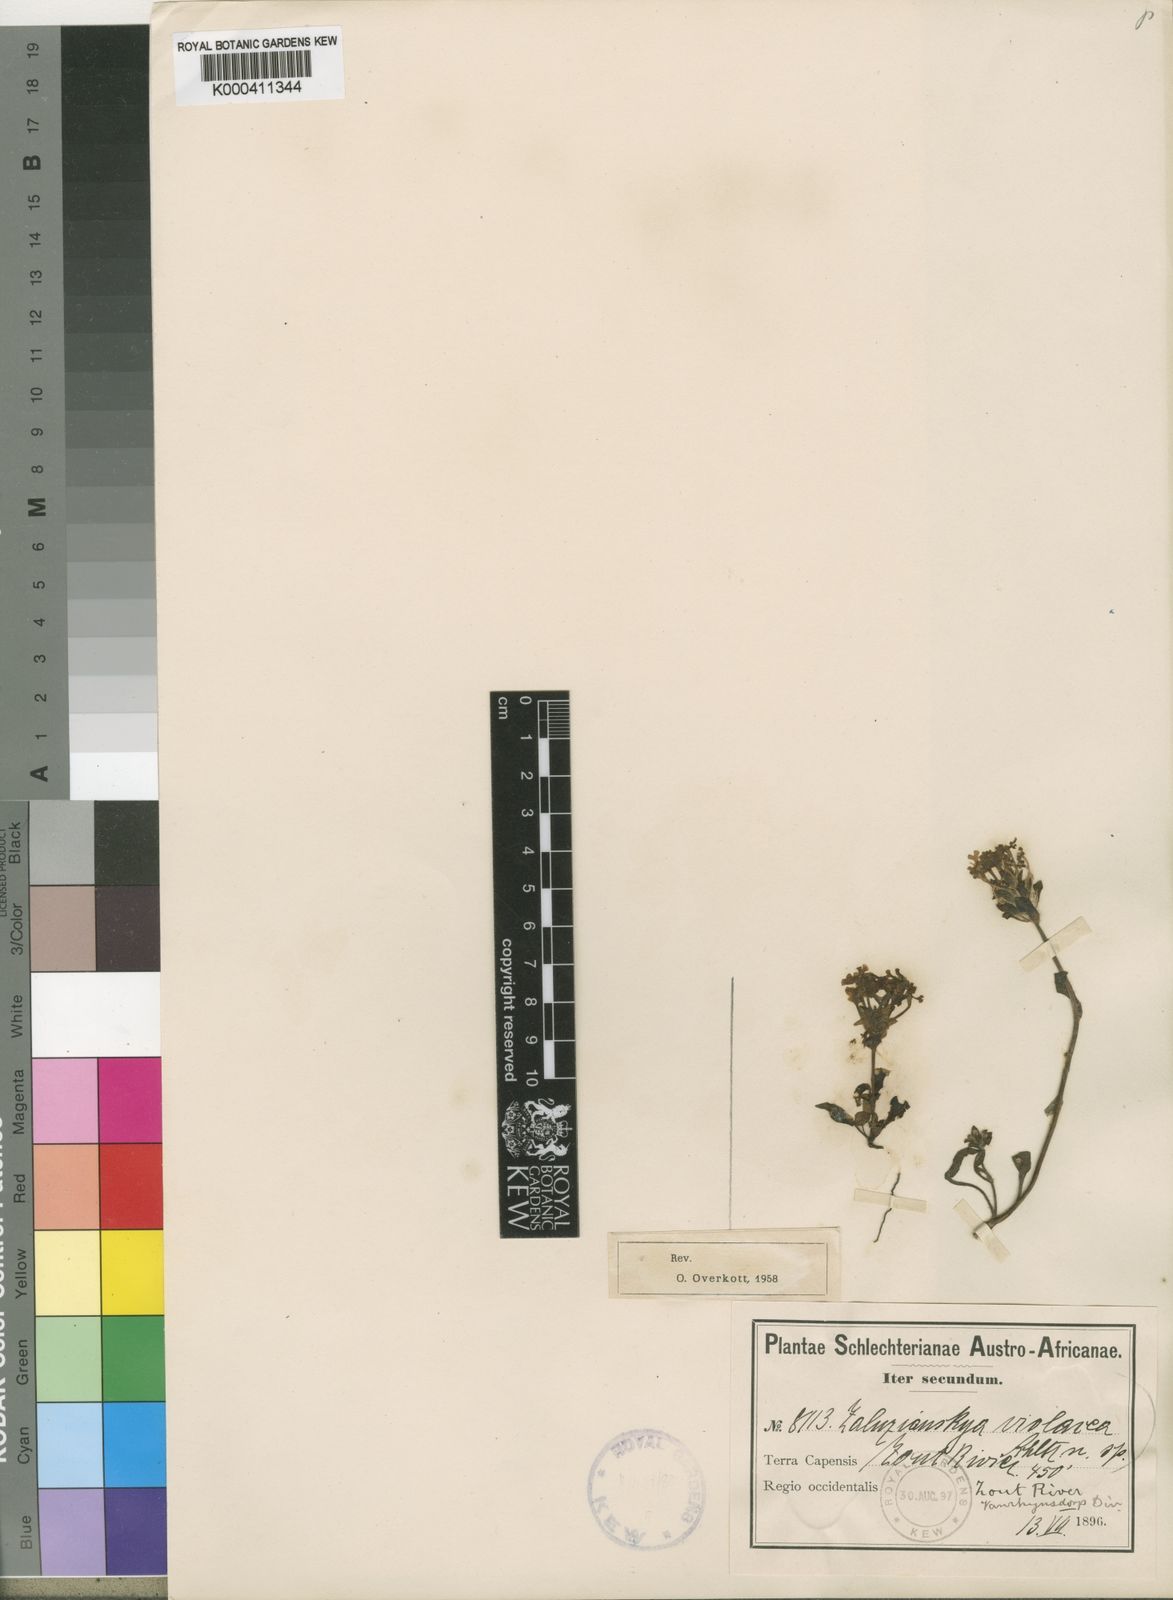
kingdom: Plantae
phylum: Tracheophyta
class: Magnoliopsida
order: Lamiales
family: Scrophulariaceae
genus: Zaluzianskya
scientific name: Zaluzianskya violacea
